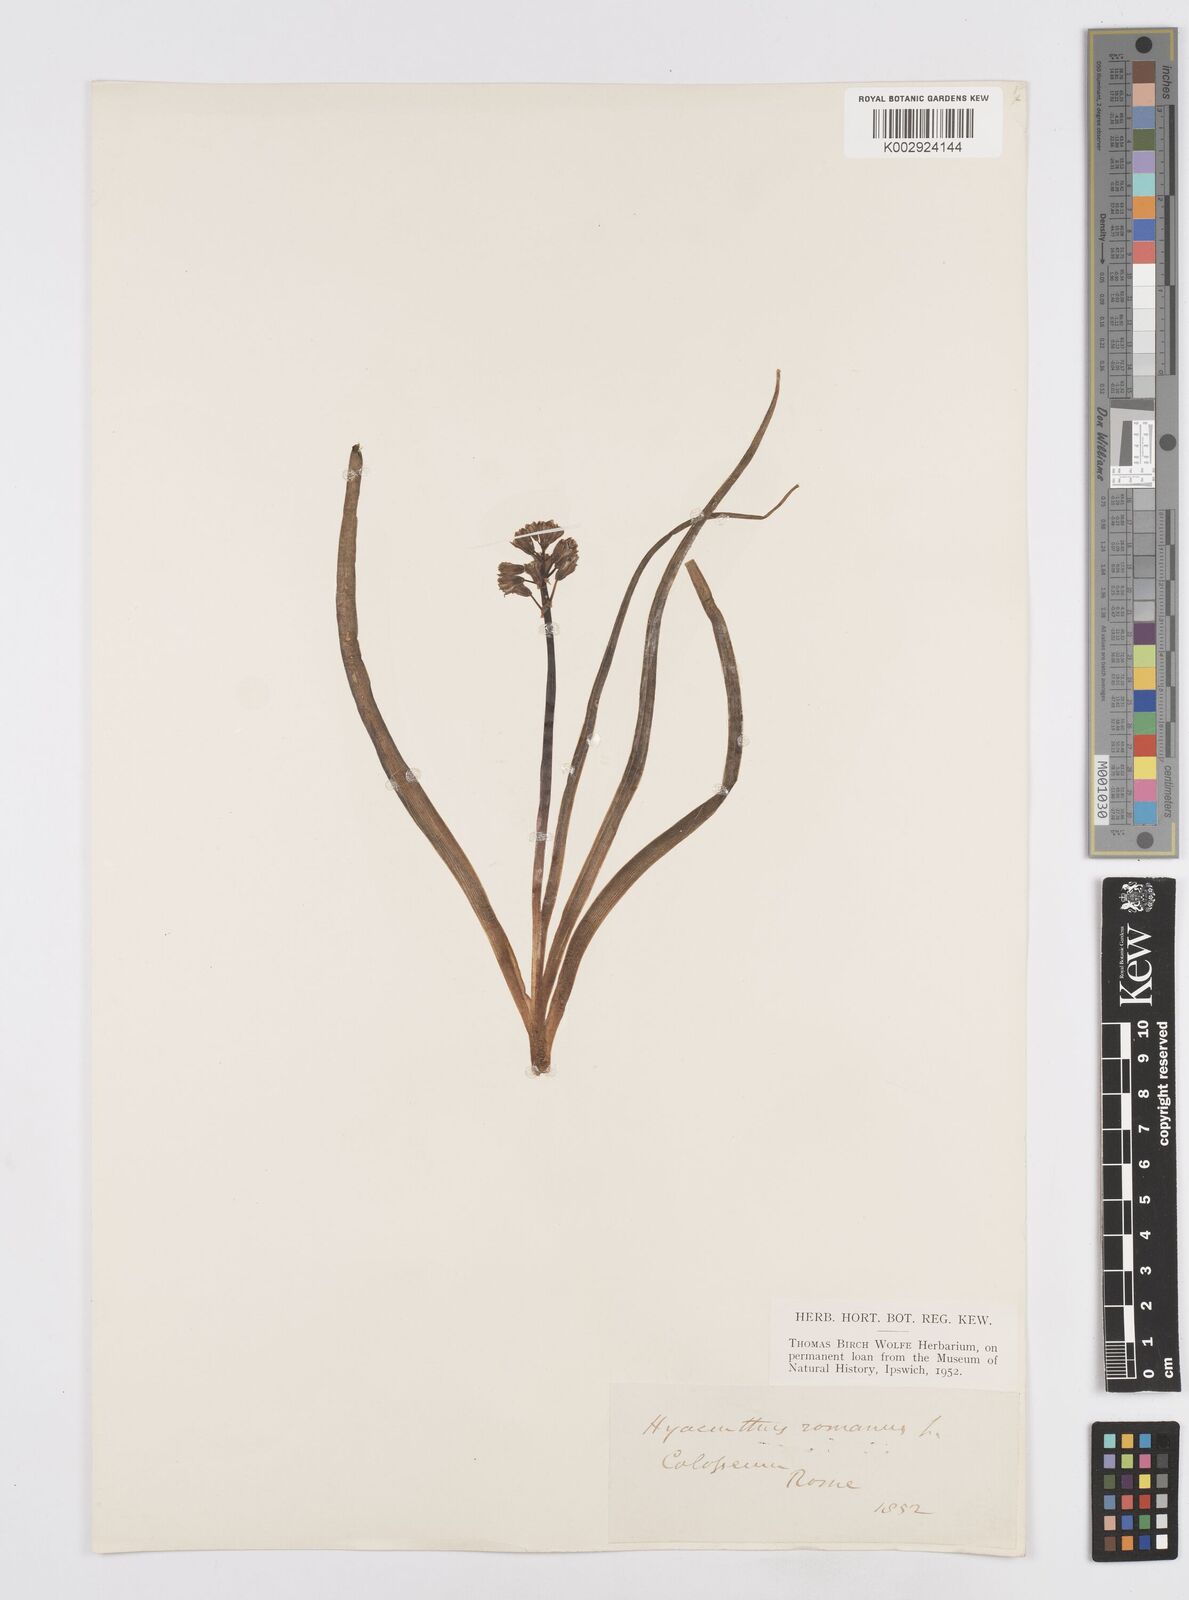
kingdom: Plantae
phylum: Tracheophyta
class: Liliopsida
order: Asparagales
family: Asparagaceae
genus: Bellevalia
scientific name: Bellevalia
